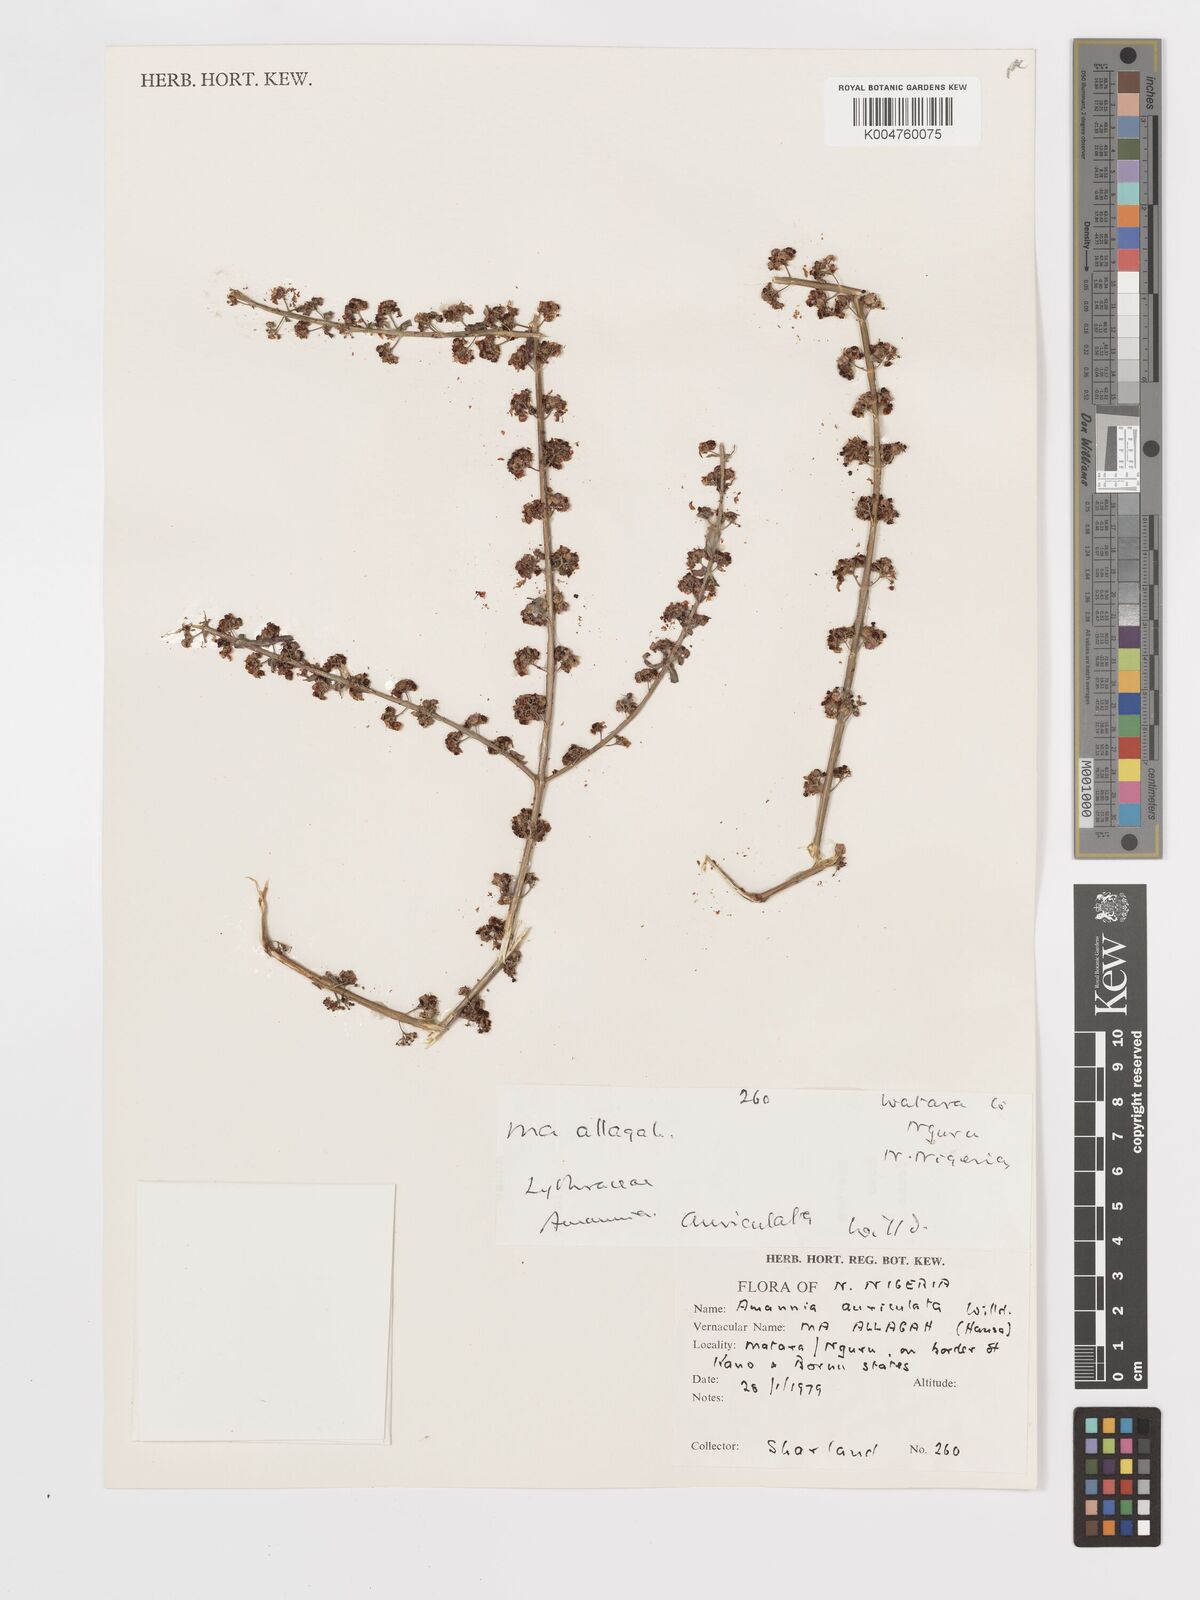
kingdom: Plantae
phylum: Tracheophyta
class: Magnoliopsida
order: Myrtales
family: Lythraceae
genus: Ammannia
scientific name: Ammannia auriculata
